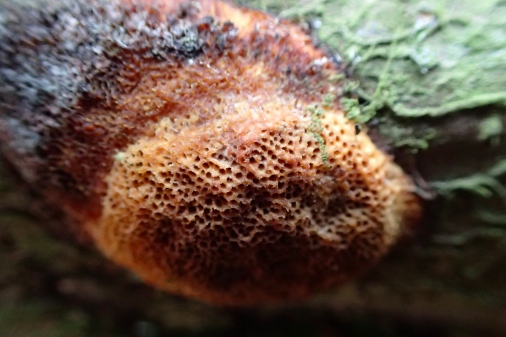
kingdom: Fungi
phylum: Basidiomycota
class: Agaricomycetes
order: Polyporales
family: Polyporaceae
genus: Szczepkamyces
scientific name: Szczepkamyces campestris
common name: hasselporesvamp
